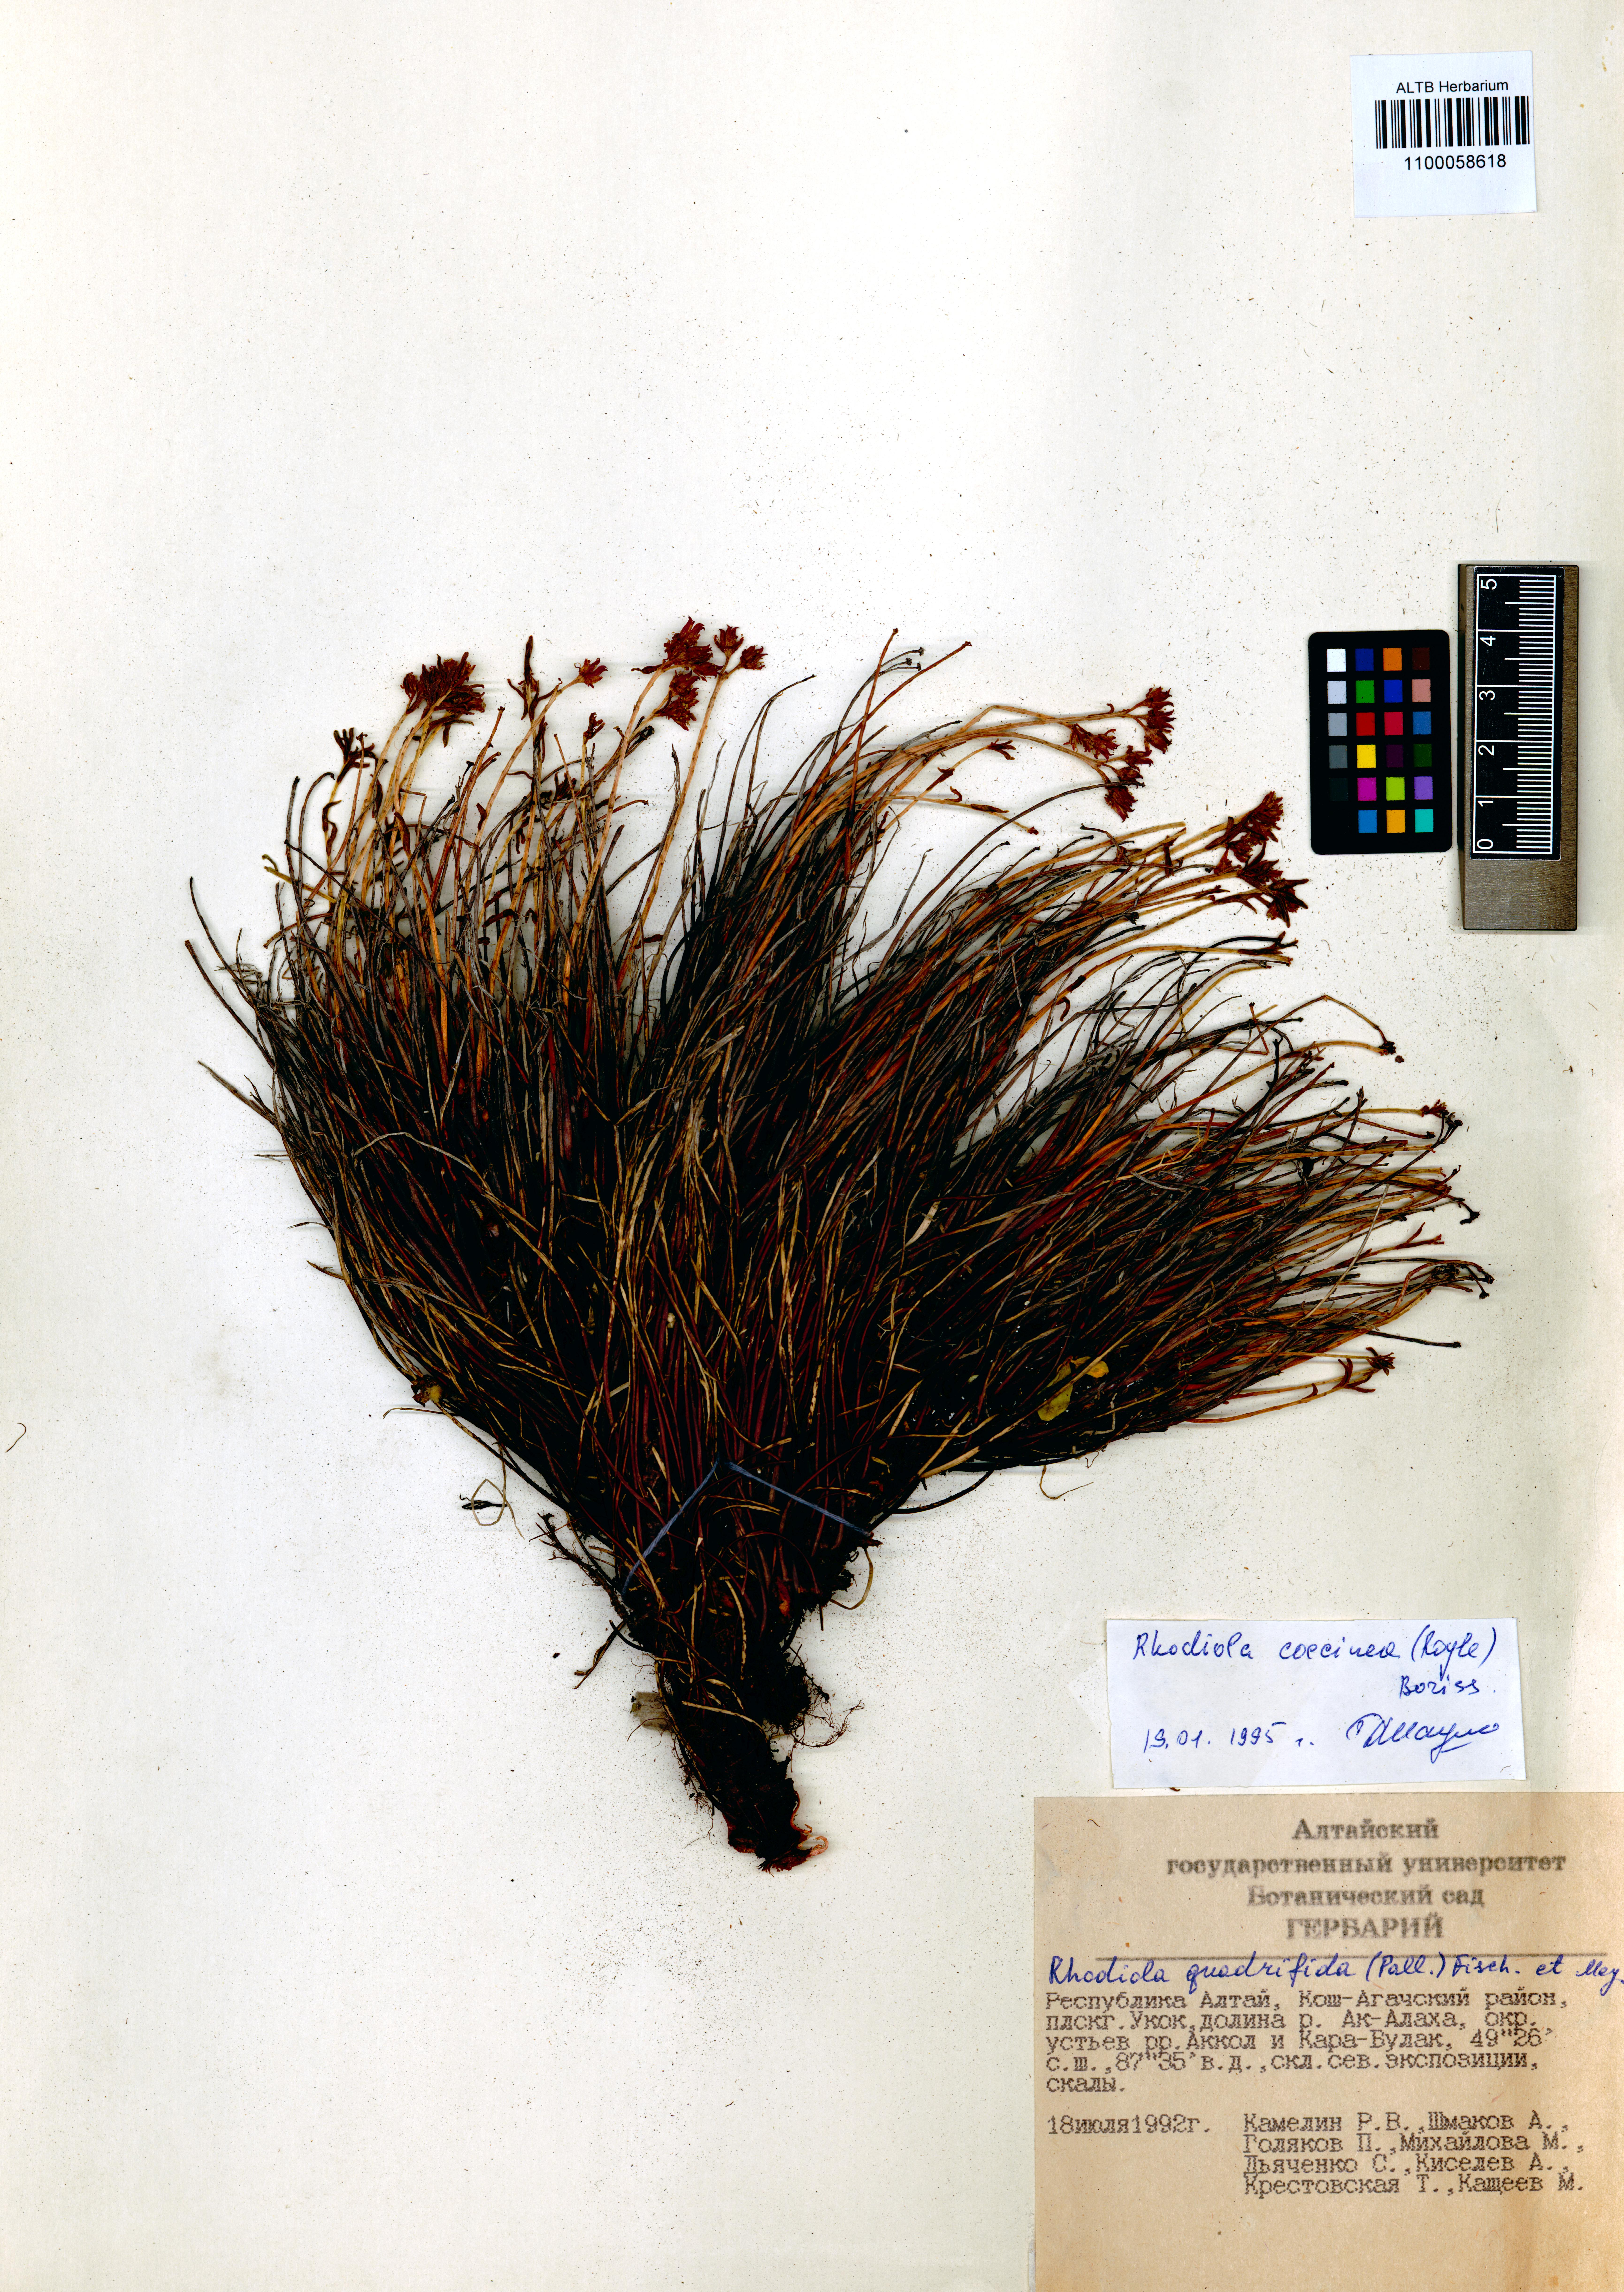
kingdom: Plantae
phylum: Tracheophyta
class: Magnoliopsida
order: Saxifragales
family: Crassulaceae
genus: Rhodiola
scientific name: Rhodiola coccinea
